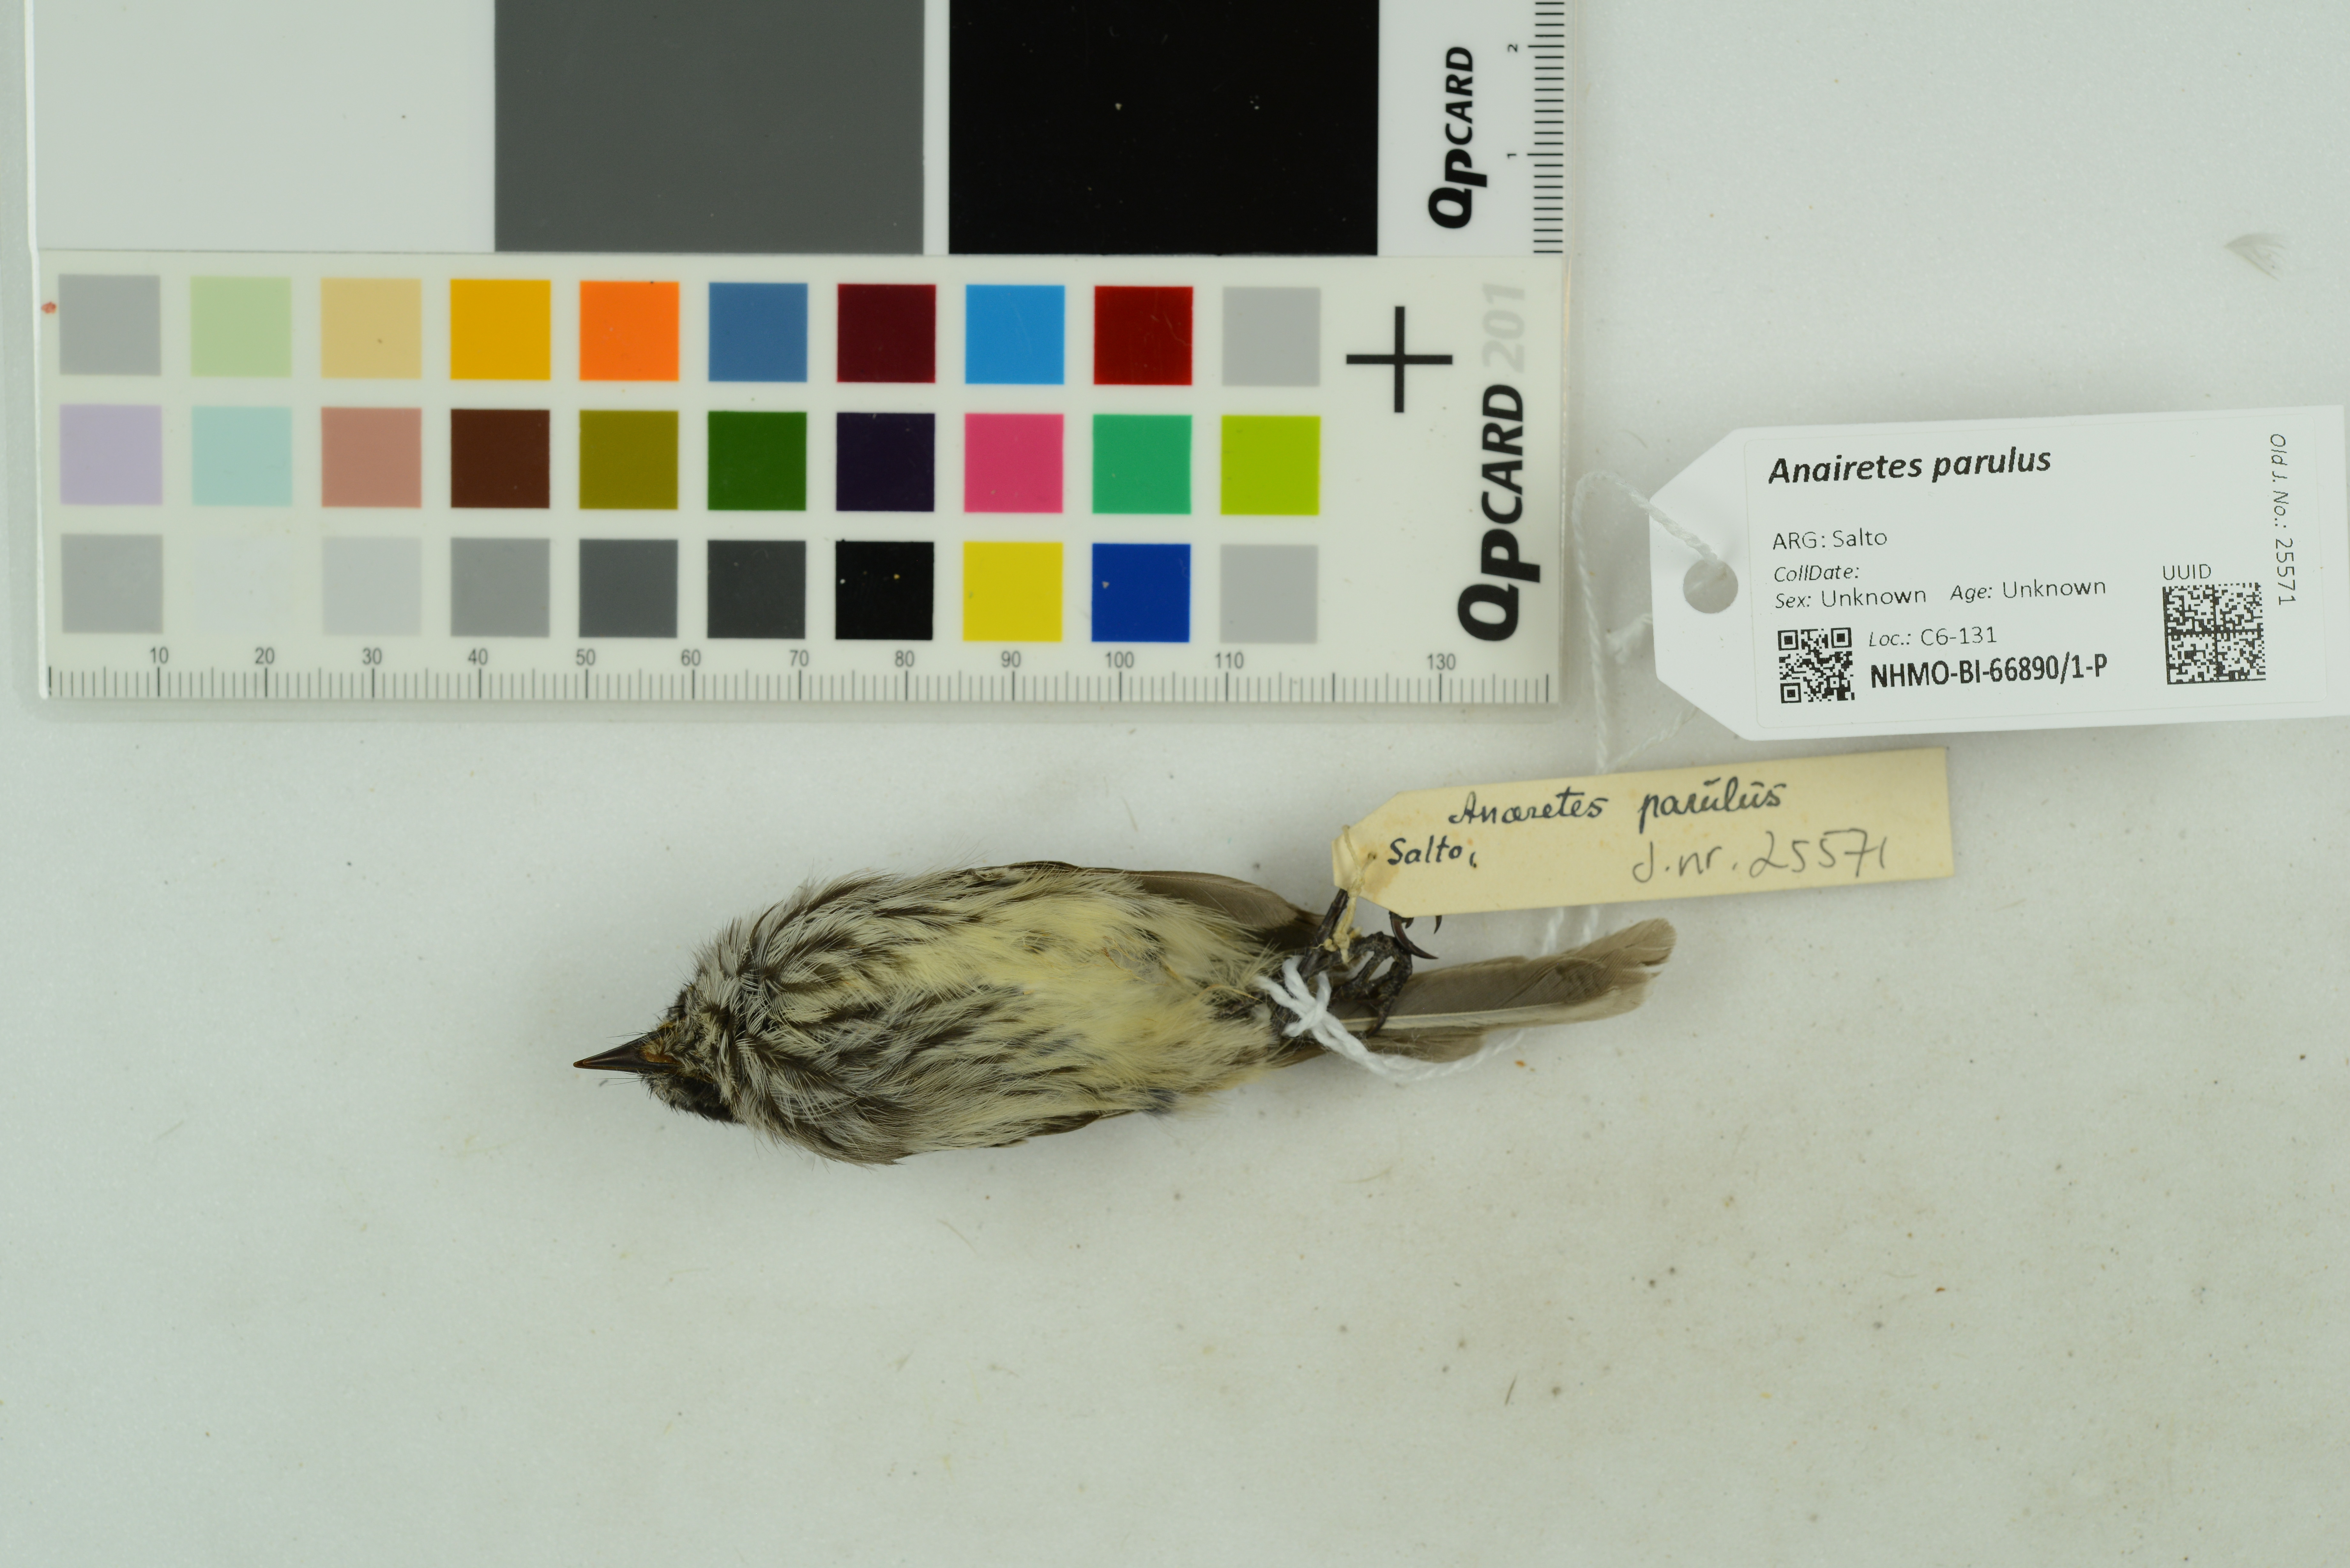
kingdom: Animalia
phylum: Chordata
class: Aves
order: Passeriformes
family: Tyrannidae
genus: Anairetes
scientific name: Anairetes parulus
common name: Tufted tit-tyrant
